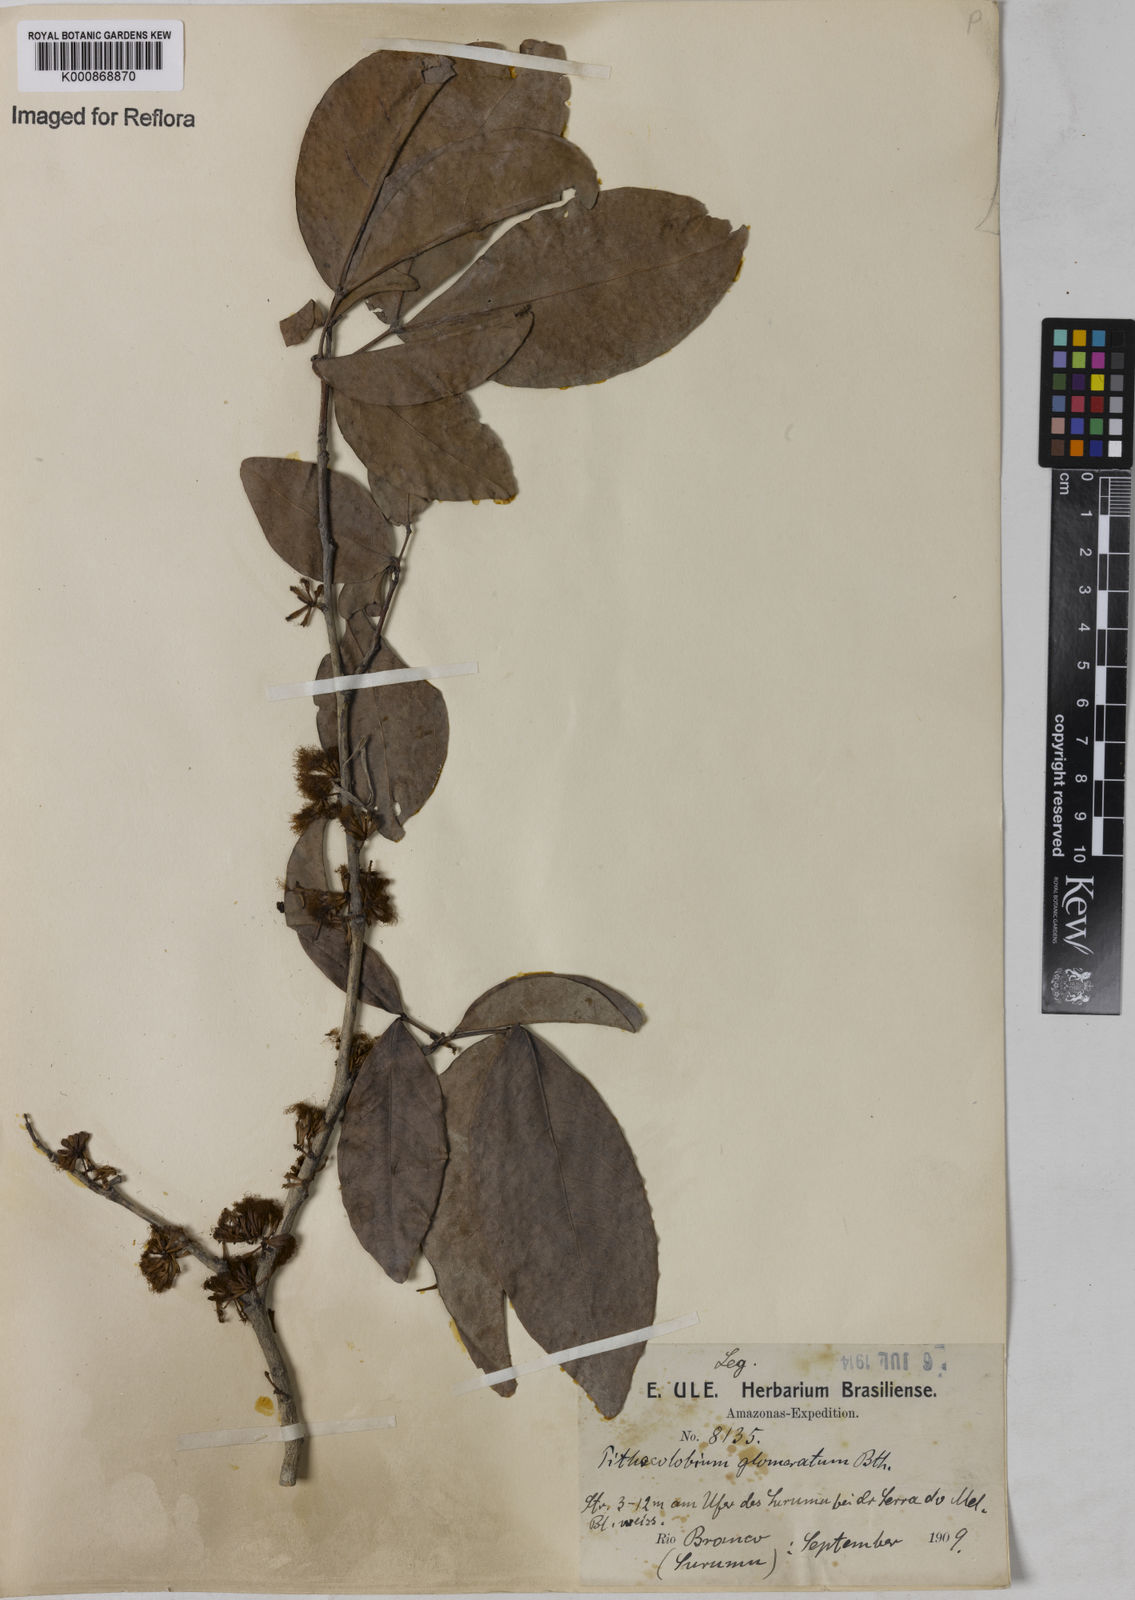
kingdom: Plantae
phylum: Tracheophyta
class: Magnoliopsida
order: Fabales
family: Fabaceae
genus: Zygia
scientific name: Zygia cataractae
